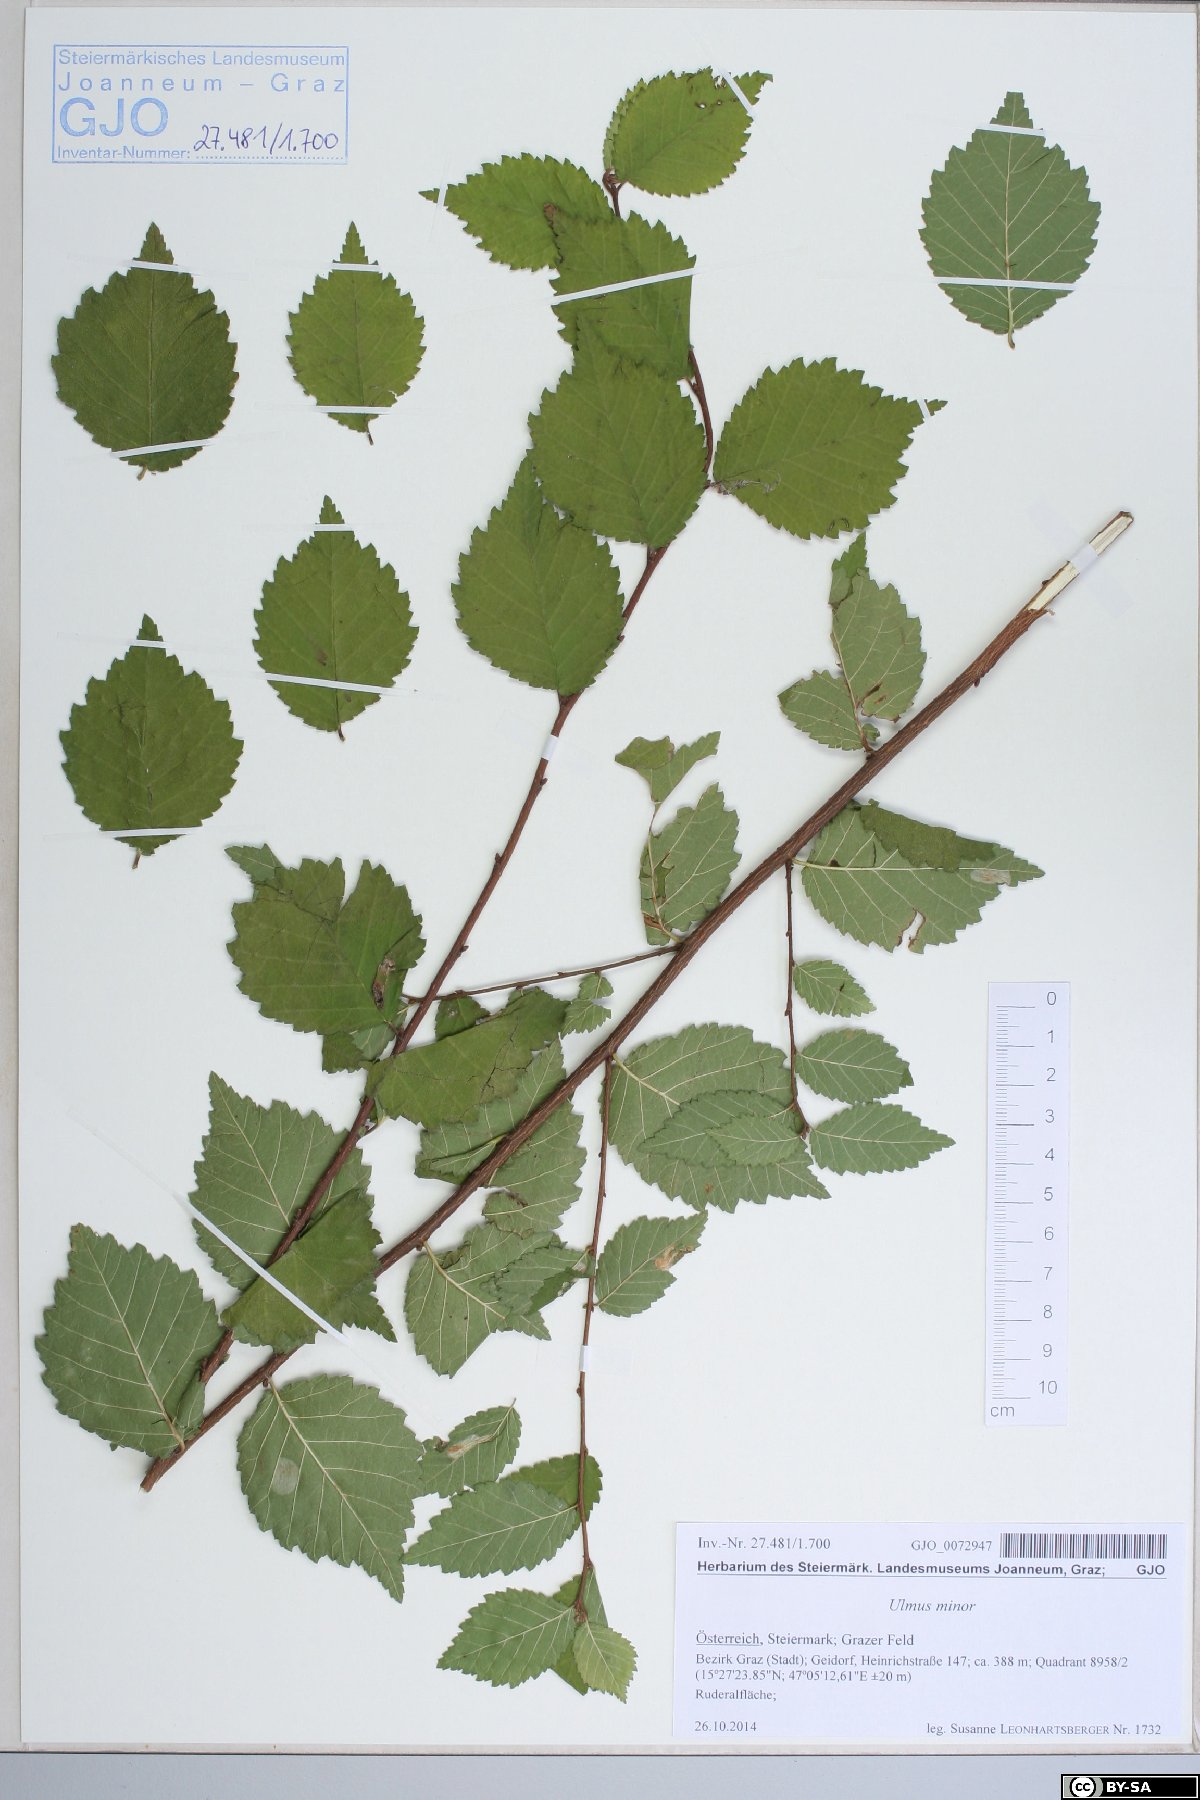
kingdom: Plantae
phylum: Tracheophyta
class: Magnoliopsida
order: Rosales
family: Ulmaceae
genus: Ulmus
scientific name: Ulmus minor
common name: Small-leaved elm
